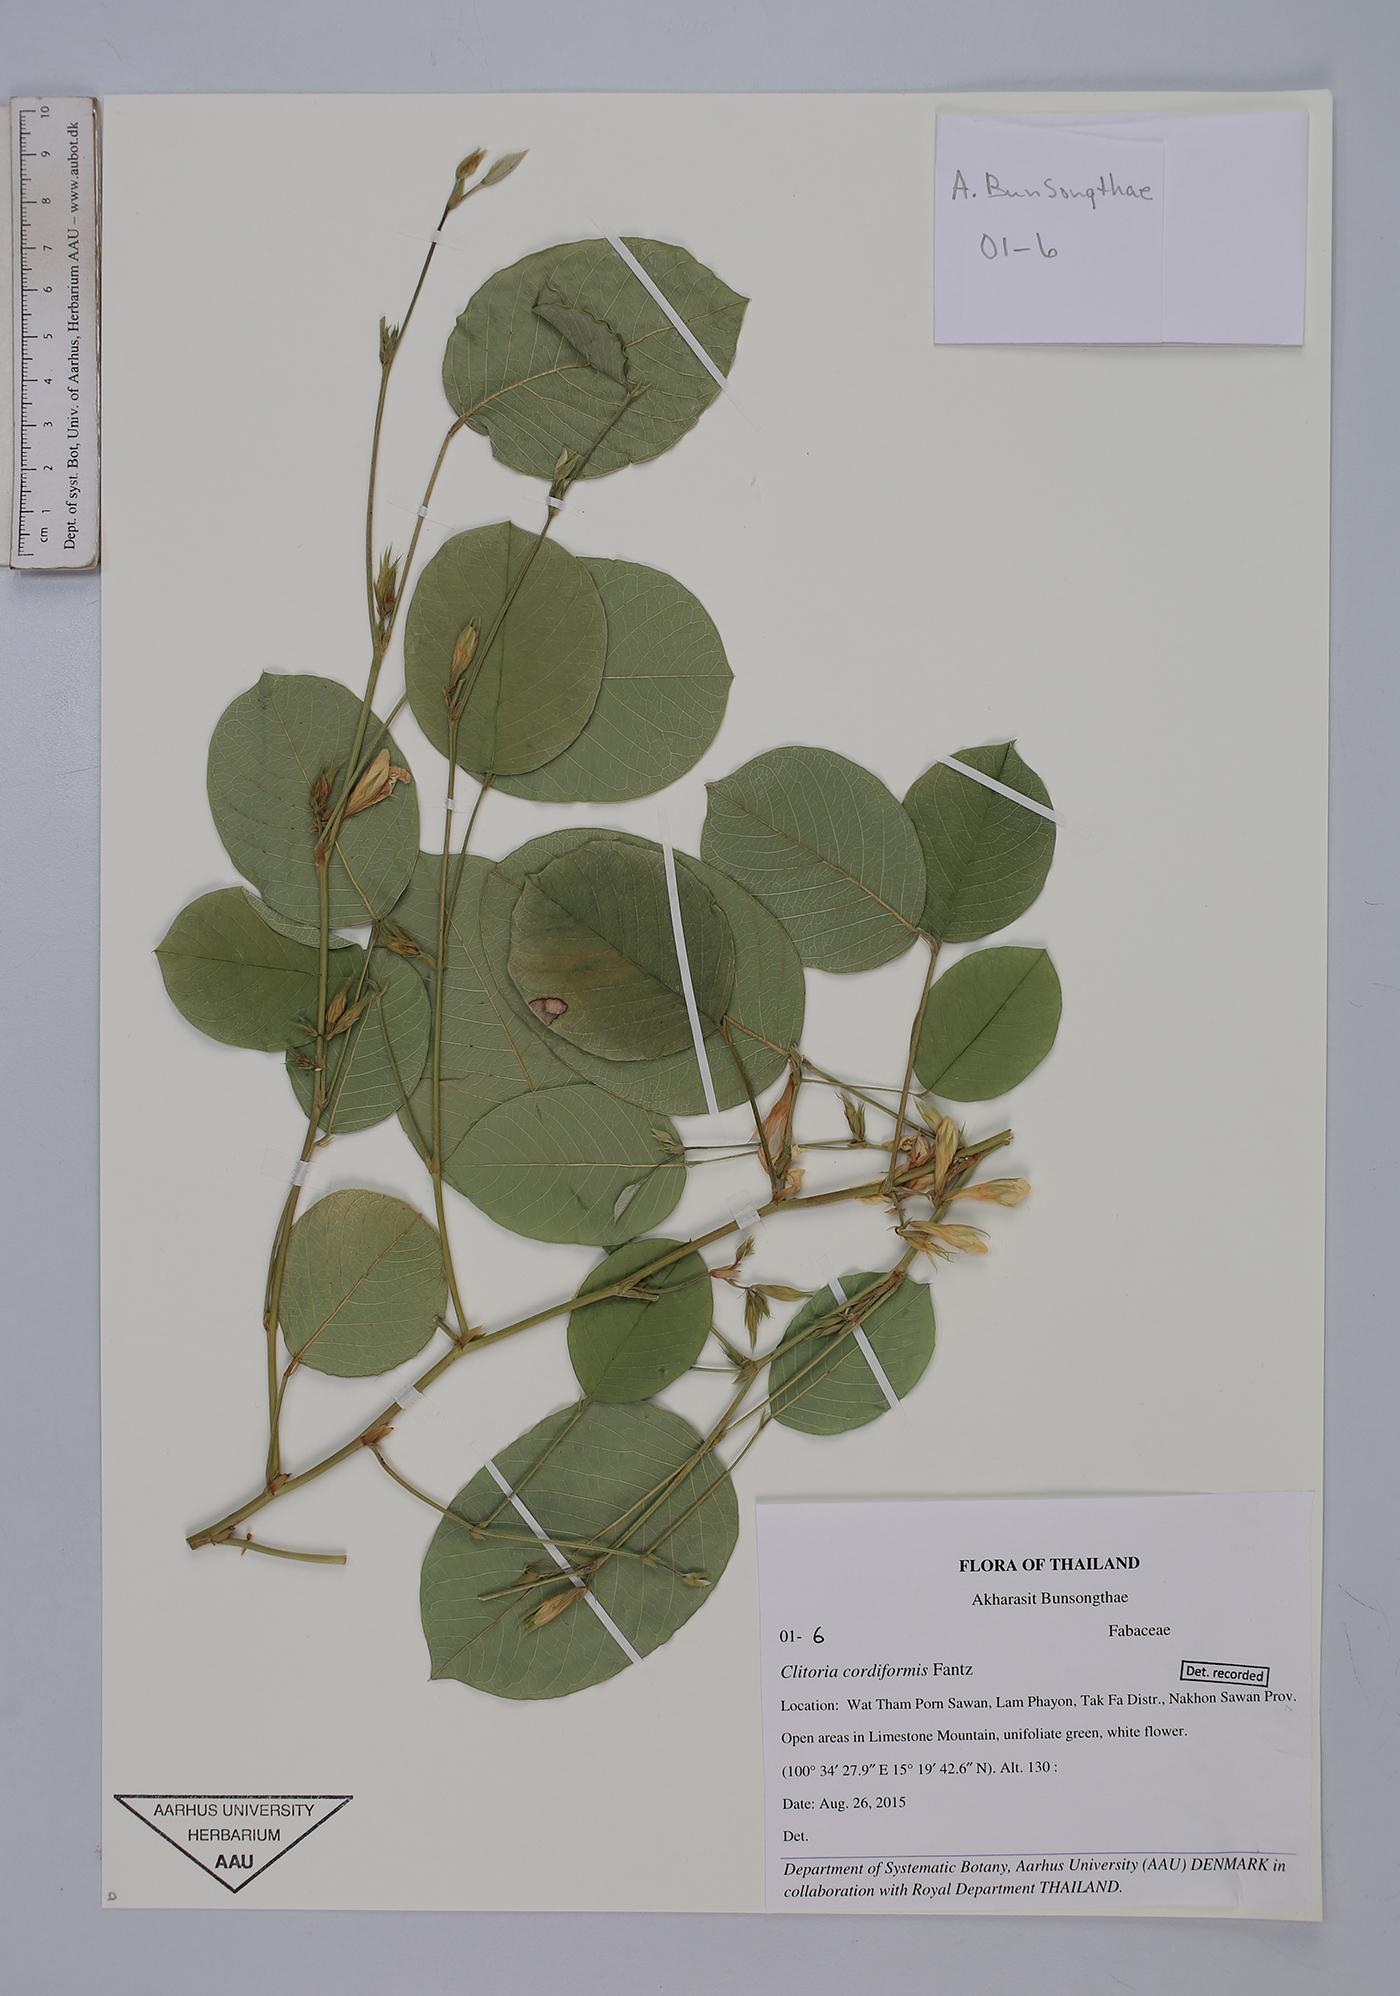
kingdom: Plantae
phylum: Tracheophyta
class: Magnoliopsida
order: Fabales
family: Fabaceae
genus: Clitoria
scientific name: Clitoria cordiformis
